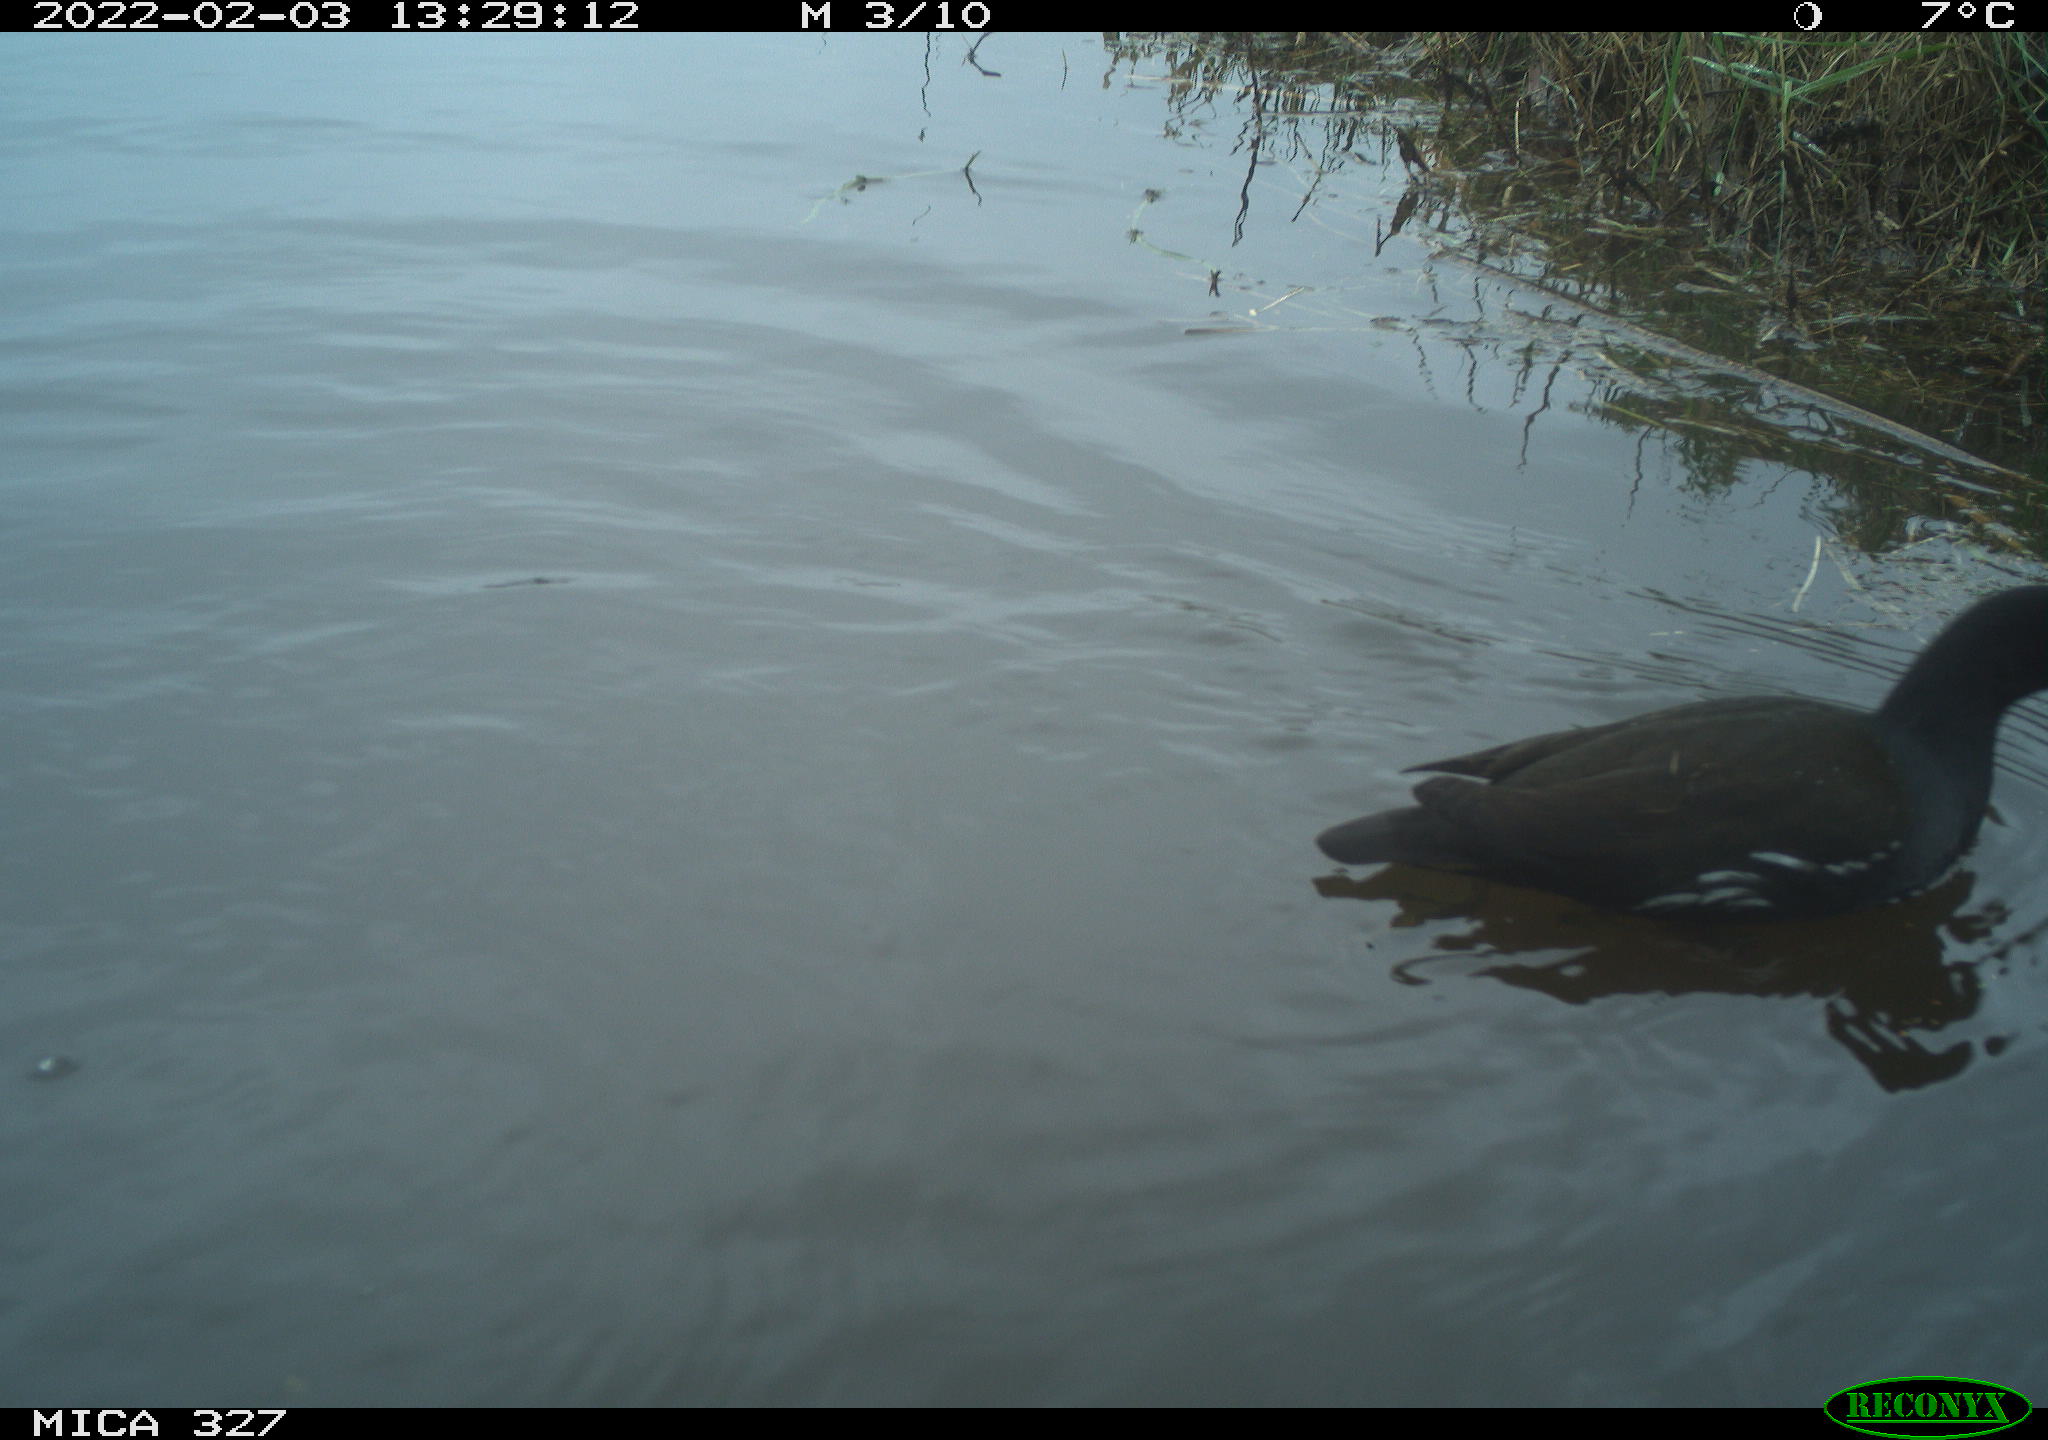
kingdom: Animalia
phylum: Chordata
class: Aves
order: Gruiformes
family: Rallidae
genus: Gallinula
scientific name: Gallinula chloropus
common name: Common moorhen
